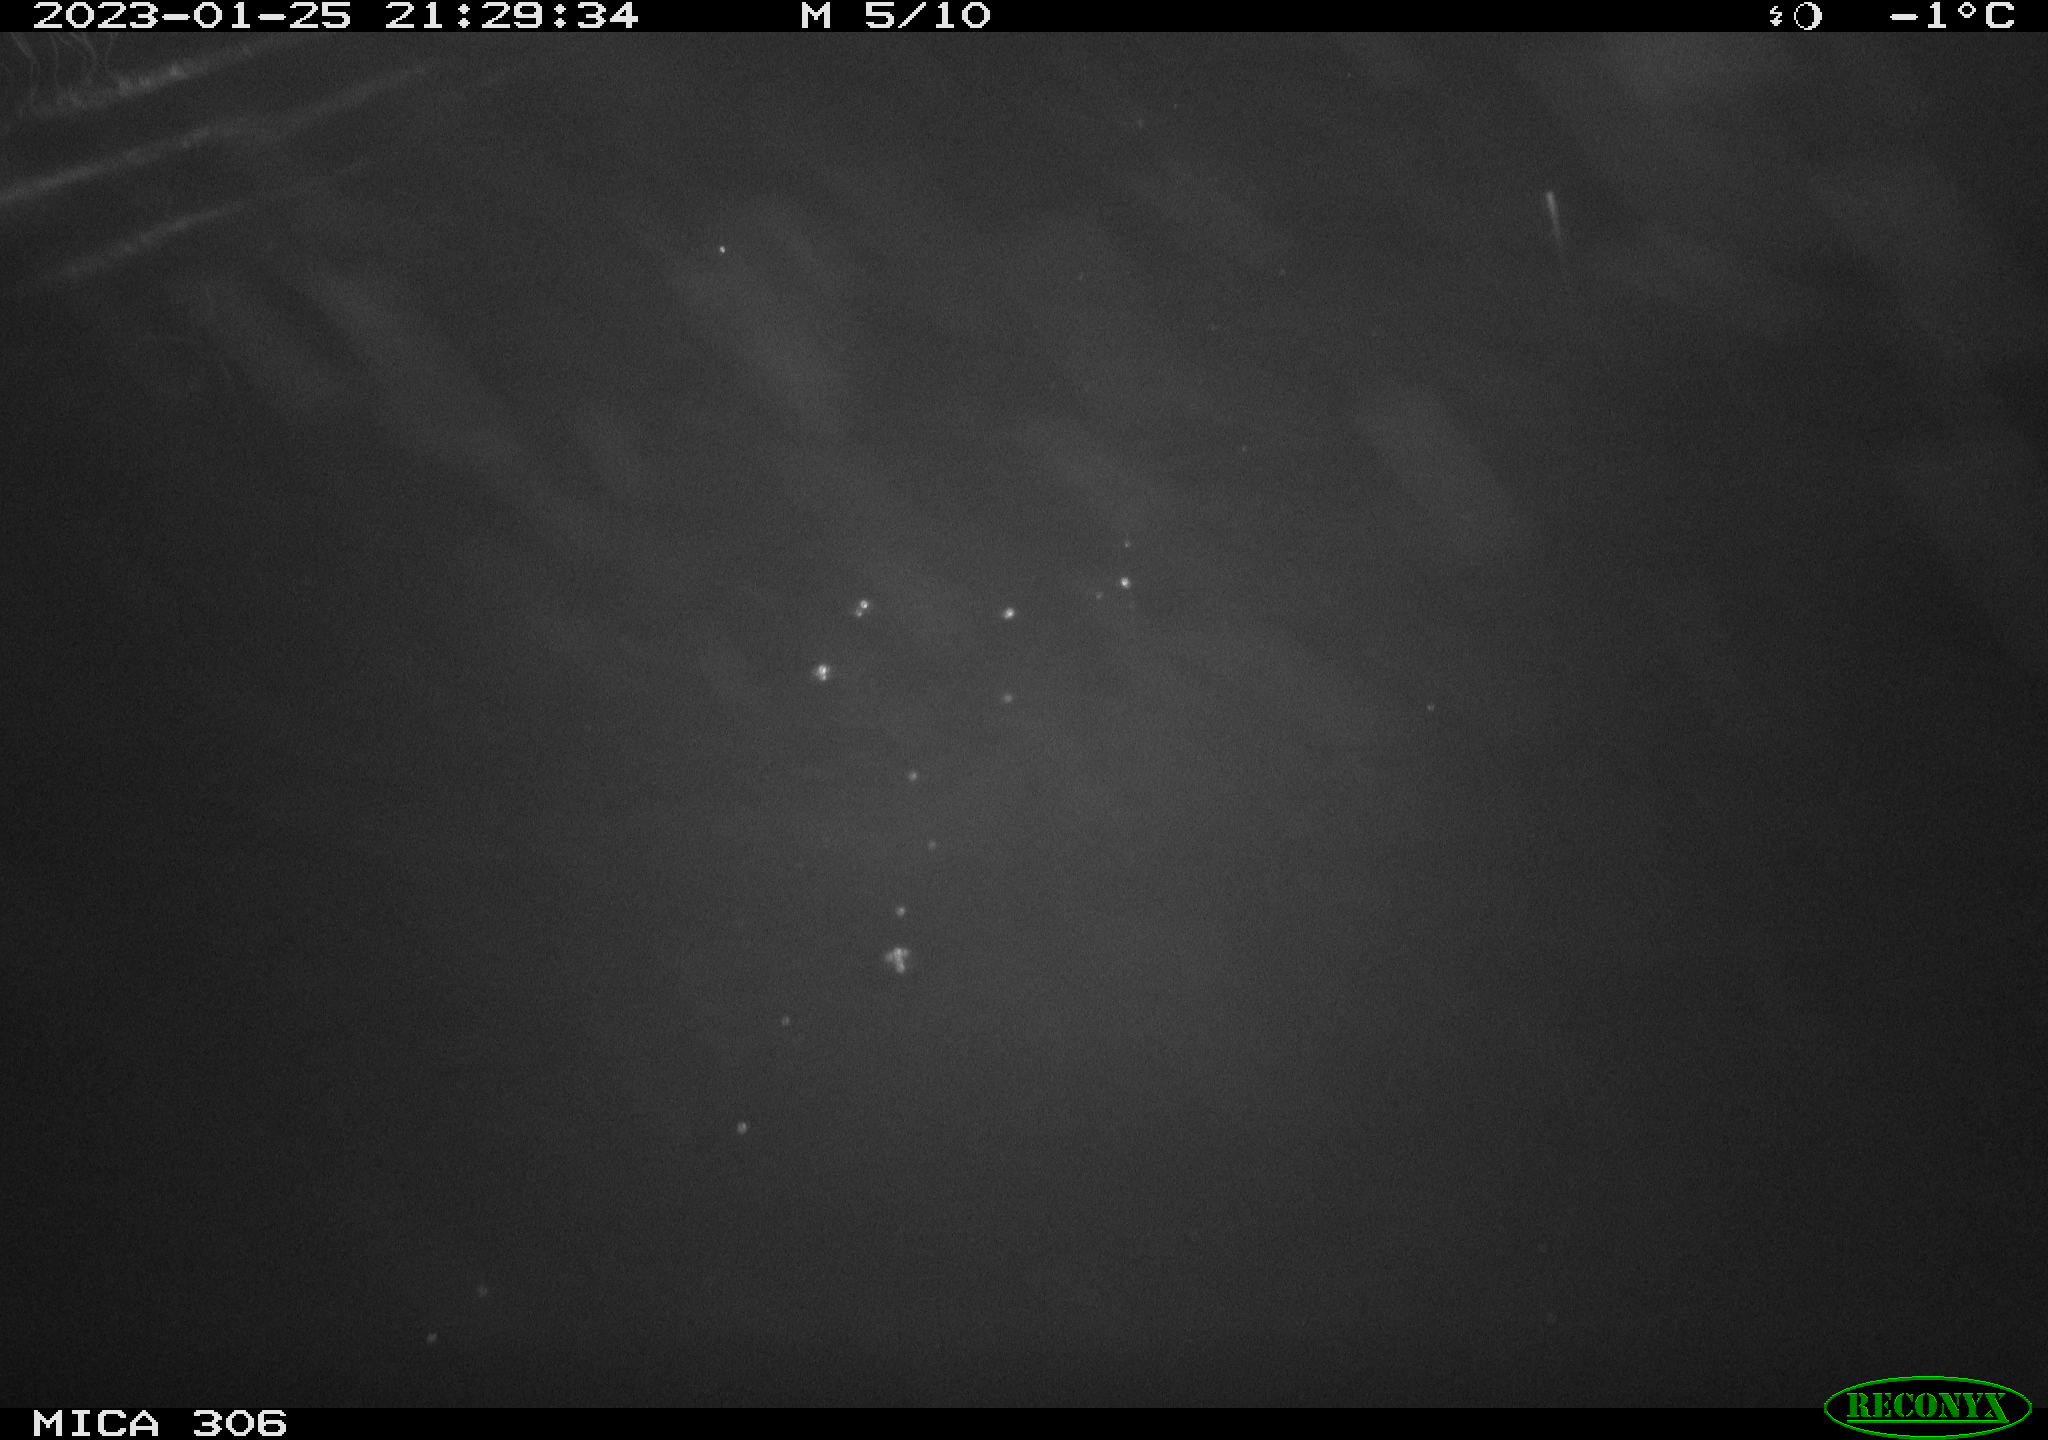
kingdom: Animalia
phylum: Chordata
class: Mammalia
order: Rodentia
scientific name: Rodentia
